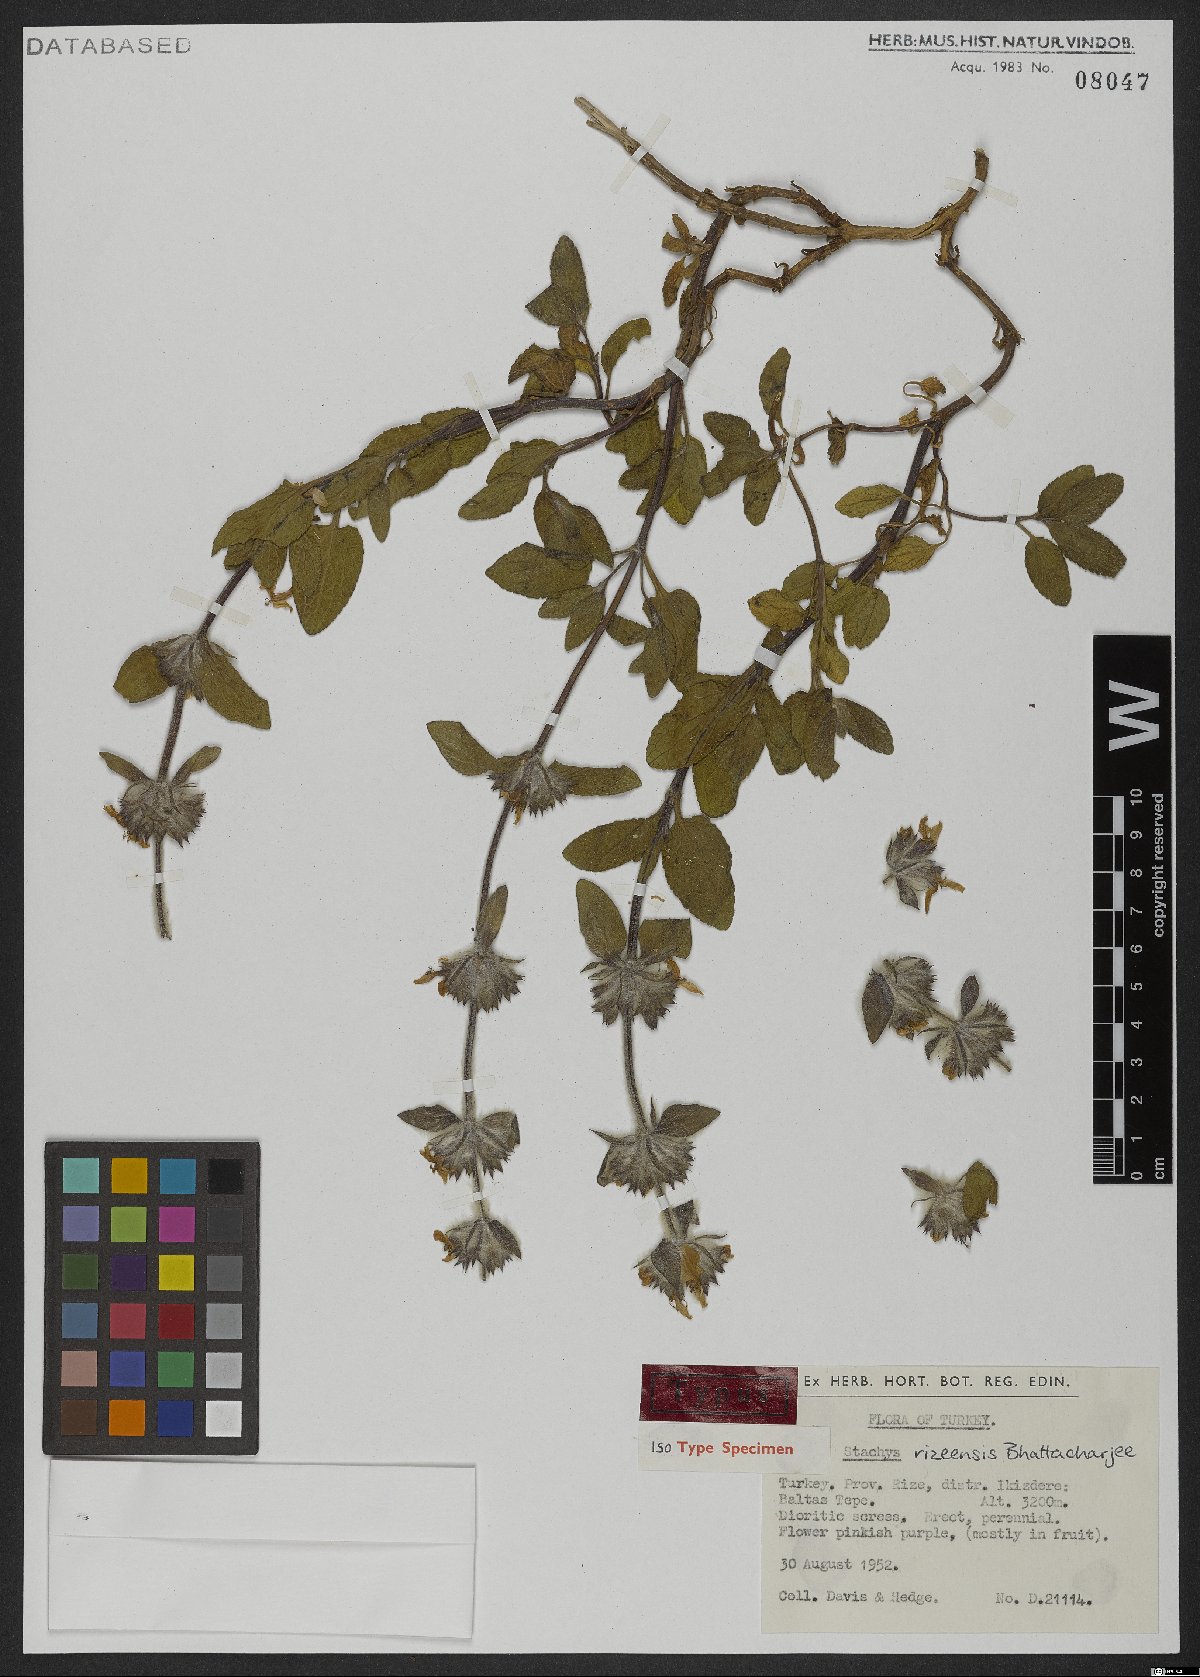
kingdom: Plantae
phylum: Tracheophyta
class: Magnoliopsida
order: Lamiales
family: Lamiaceae
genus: Stachys
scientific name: Stachys rizeensis
